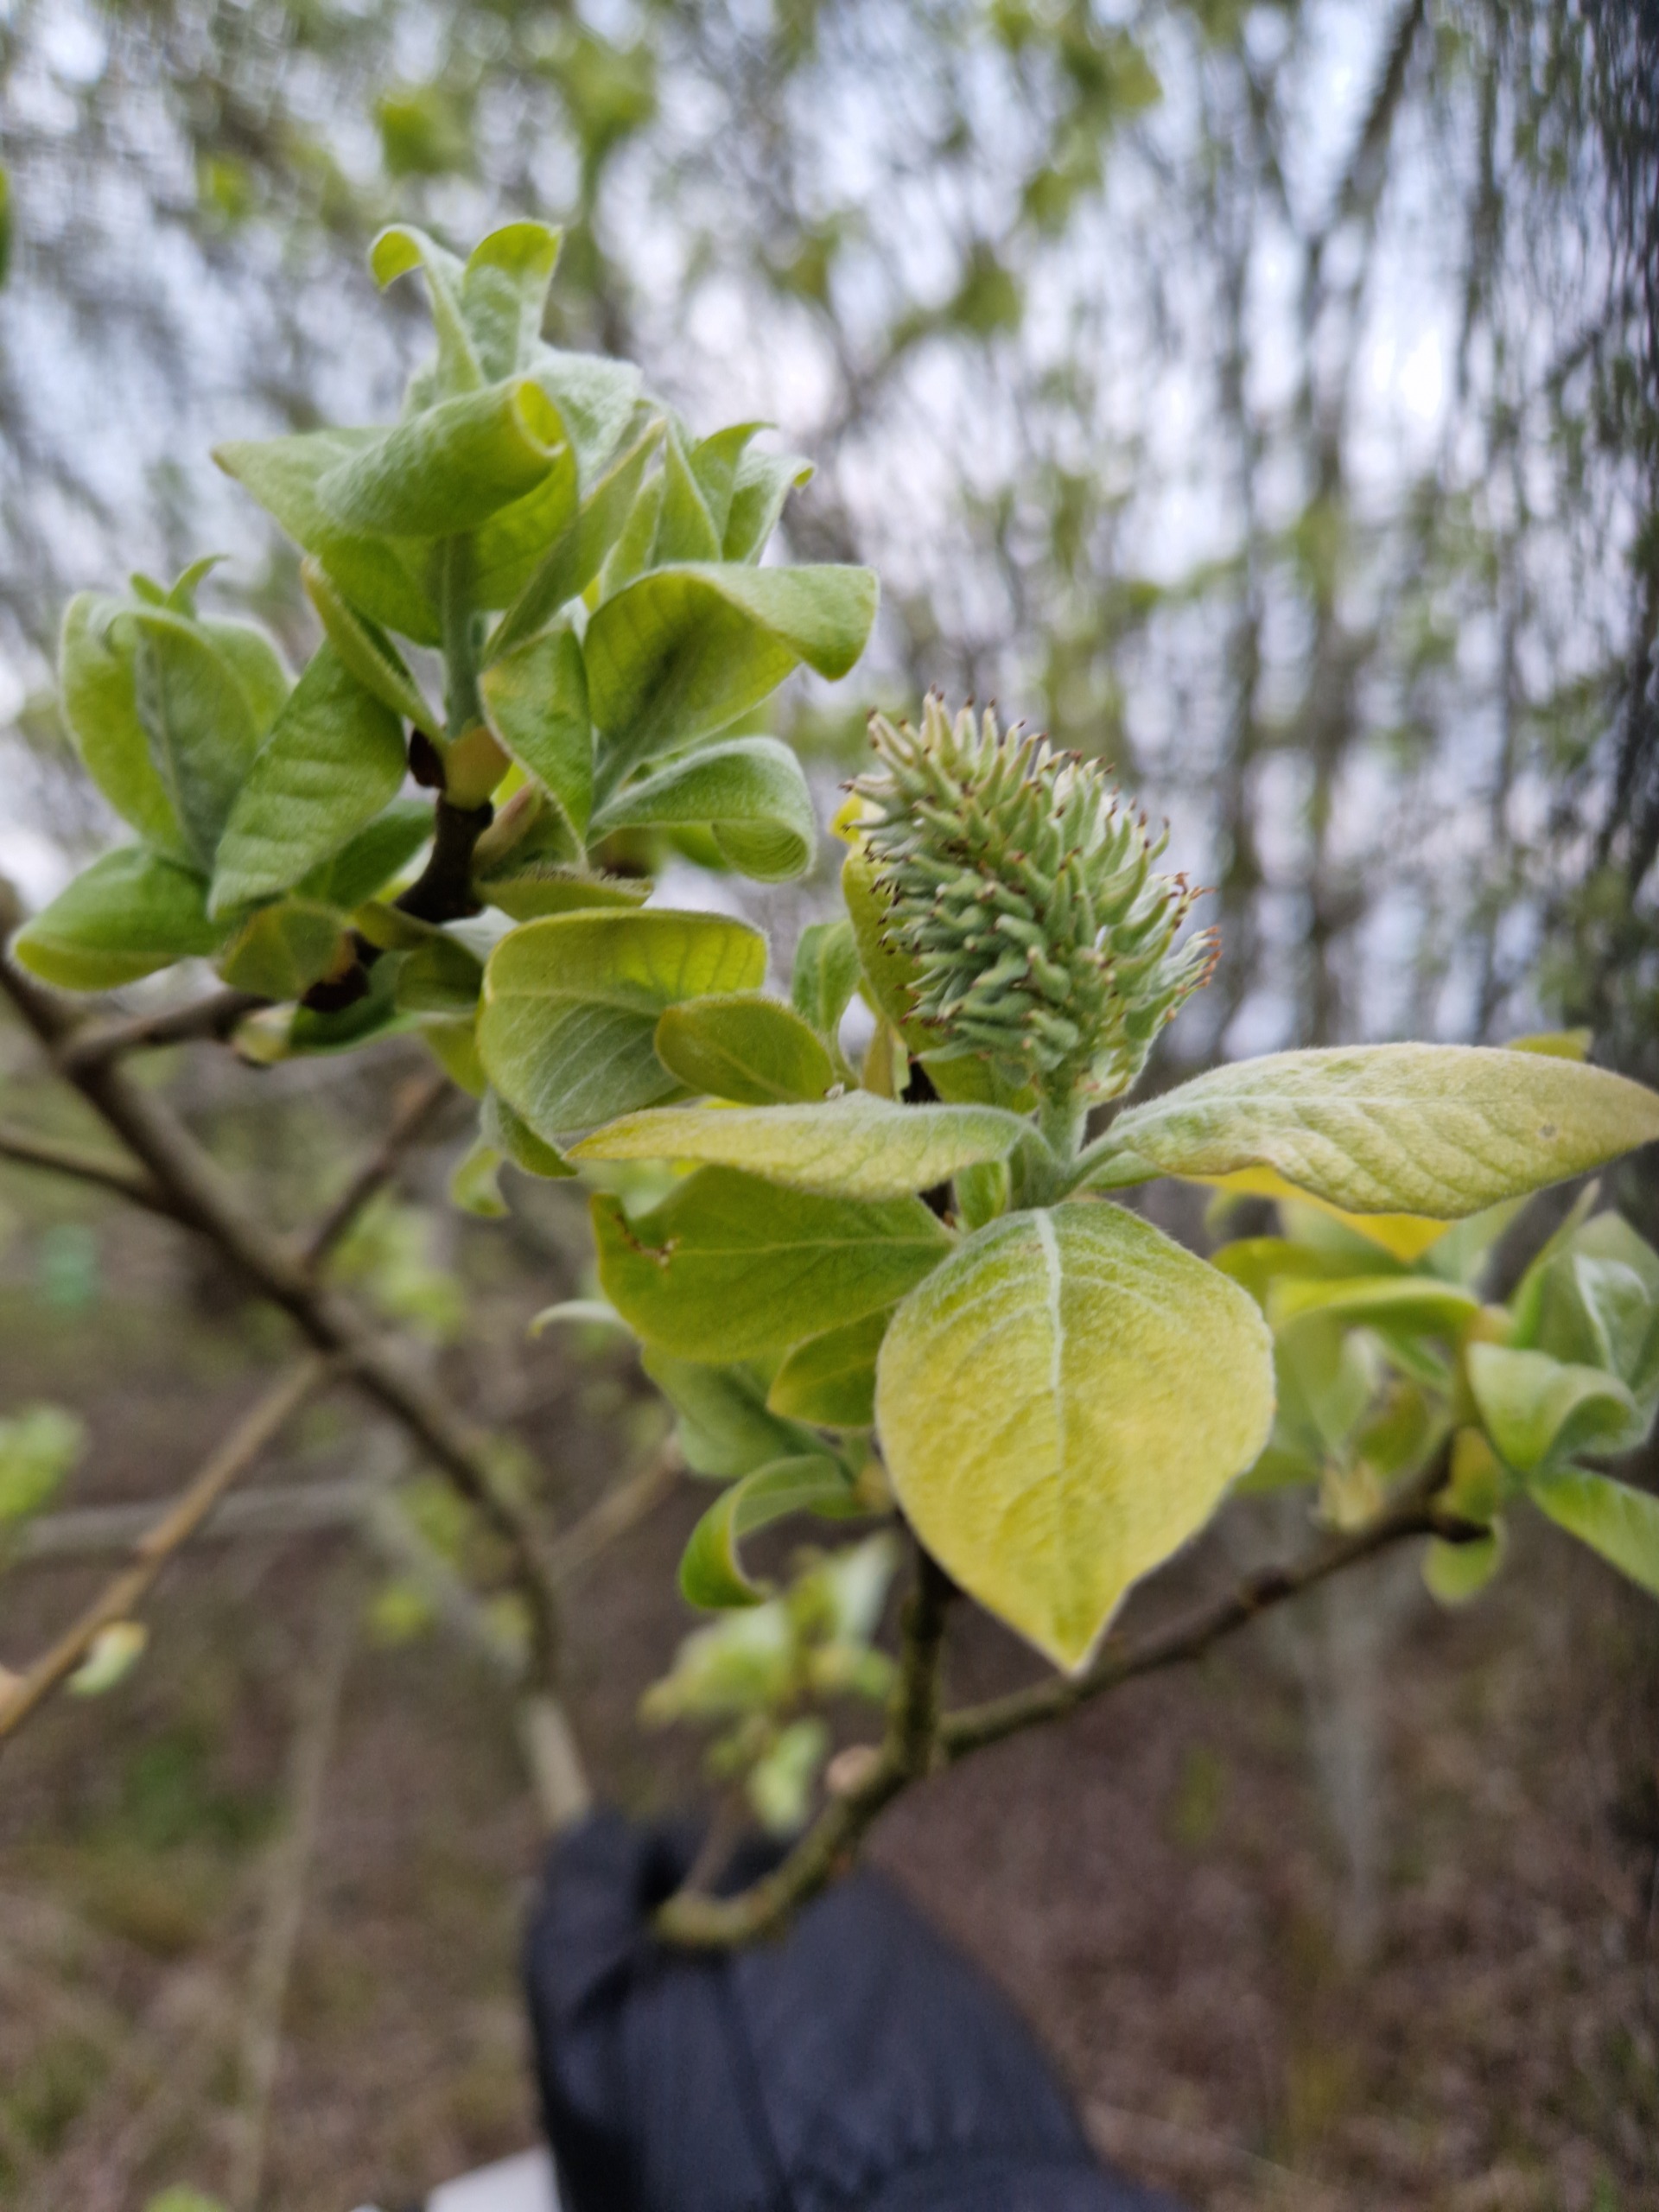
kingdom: Plantae
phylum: Tracheophyta
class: Magnoliopsida
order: Malpighiales
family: Salicaceae
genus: Salix
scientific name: Salix caprea
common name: Selje-pil
